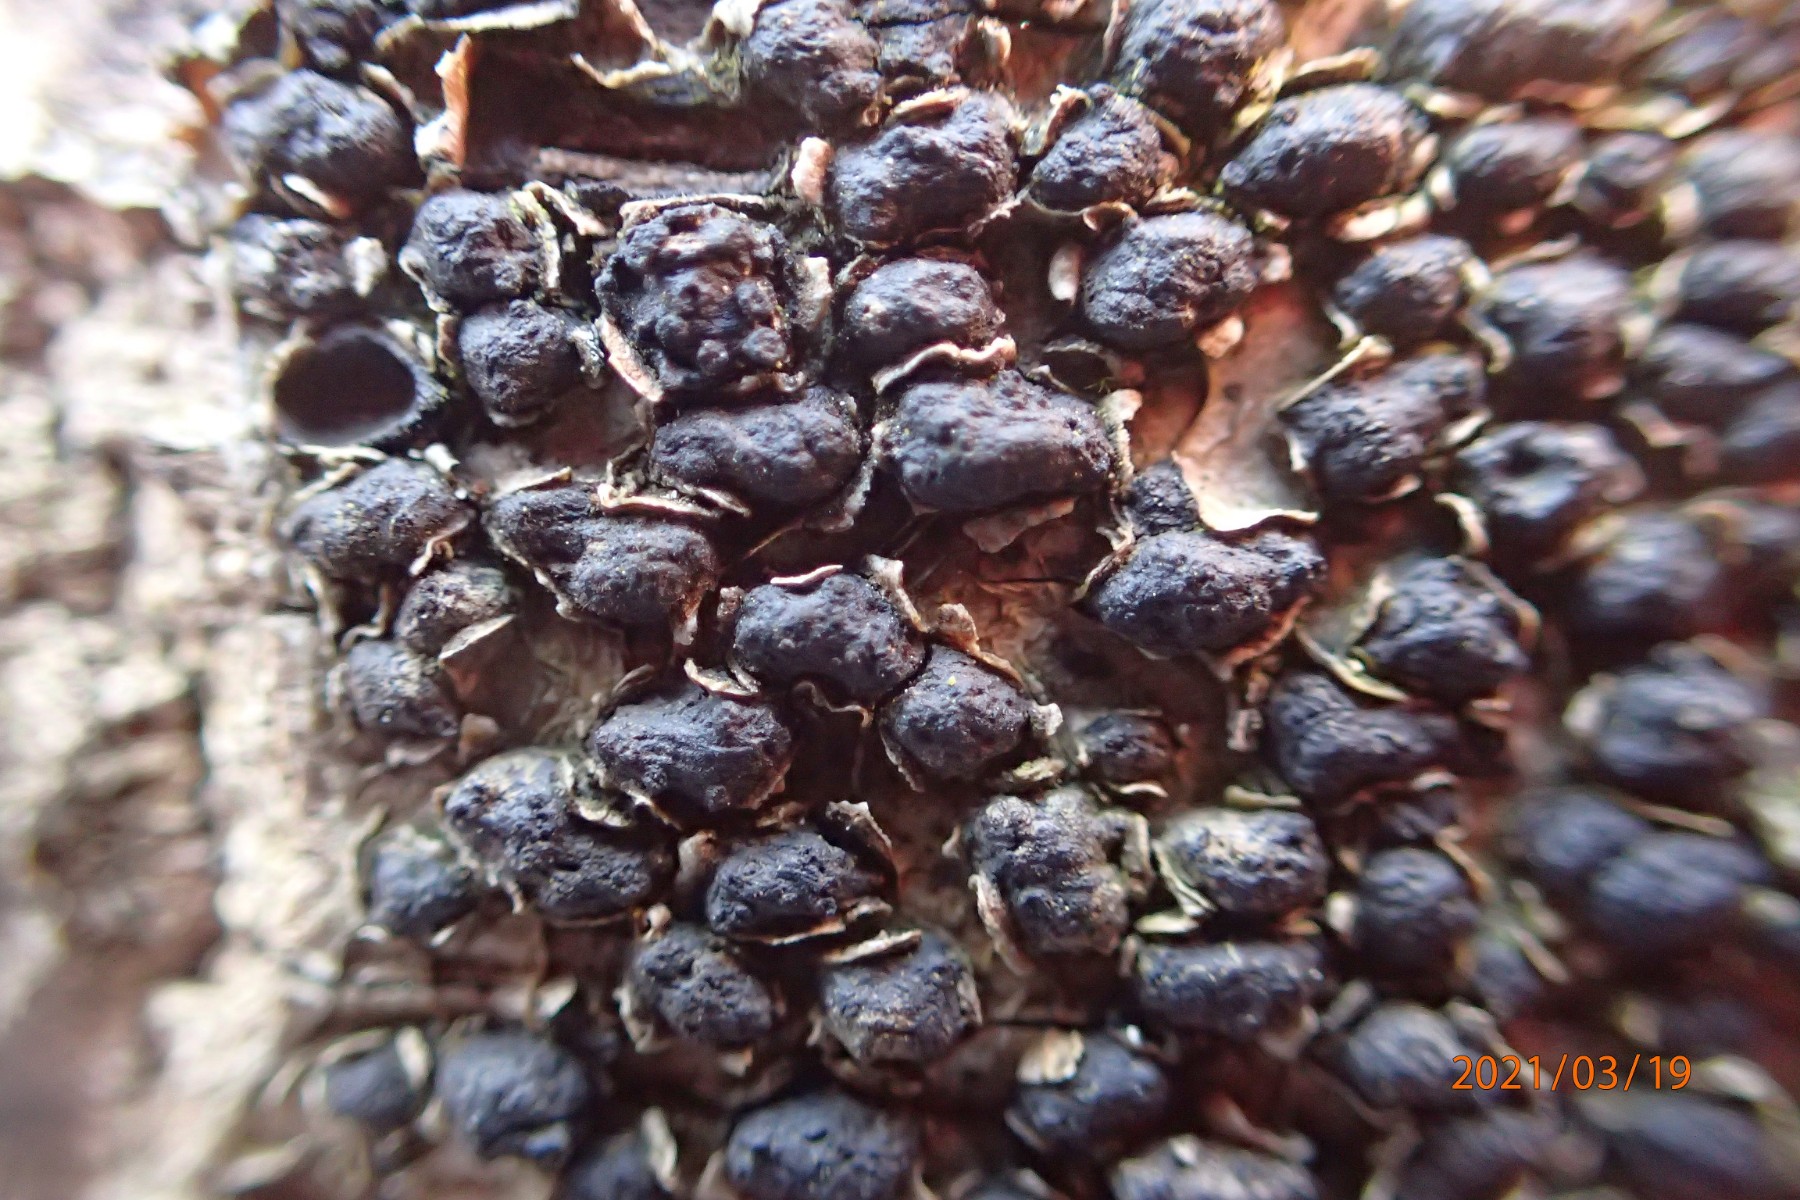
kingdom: Fungi
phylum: Ascomycota
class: Sordariomycetes
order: Xylariales
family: Melogrammataceae
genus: Melogramma
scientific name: Melogramma spiniferum
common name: bøgefod-kulhals
